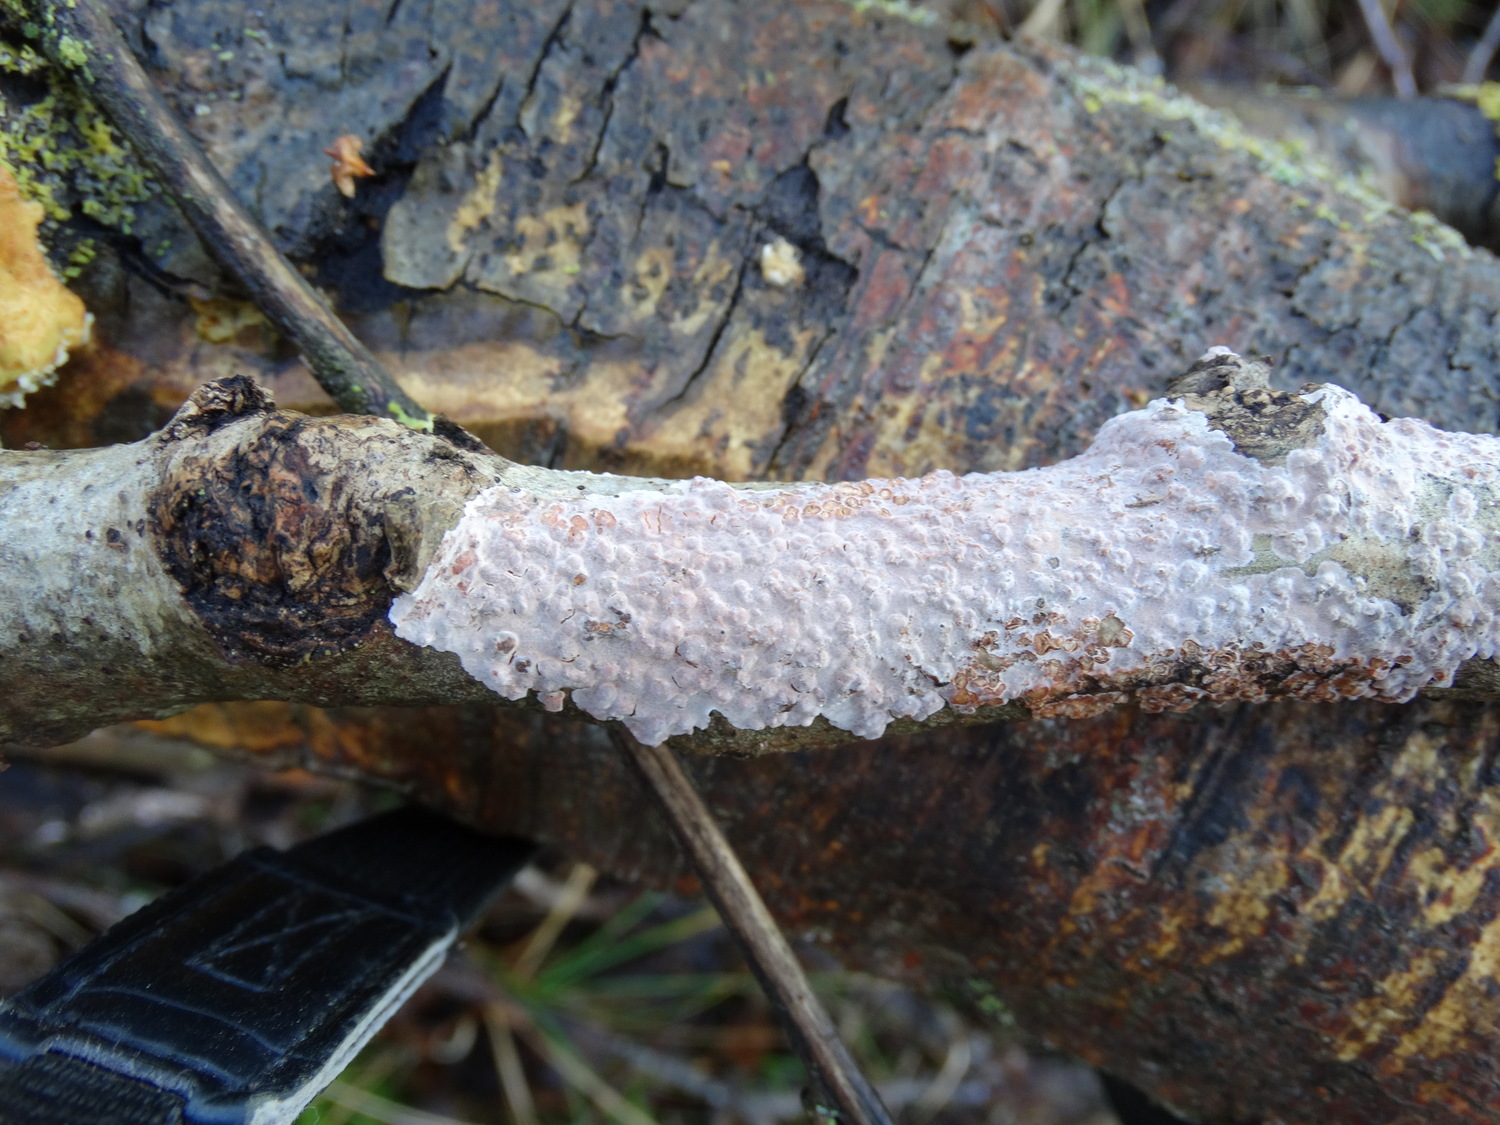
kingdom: Fungi
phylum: Basidiomycota
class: Agaricomycetes
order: Russulales
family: Peniophoraceae
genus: Peniophora
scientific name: Peniophora polygonia
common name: polygon-voksskind
